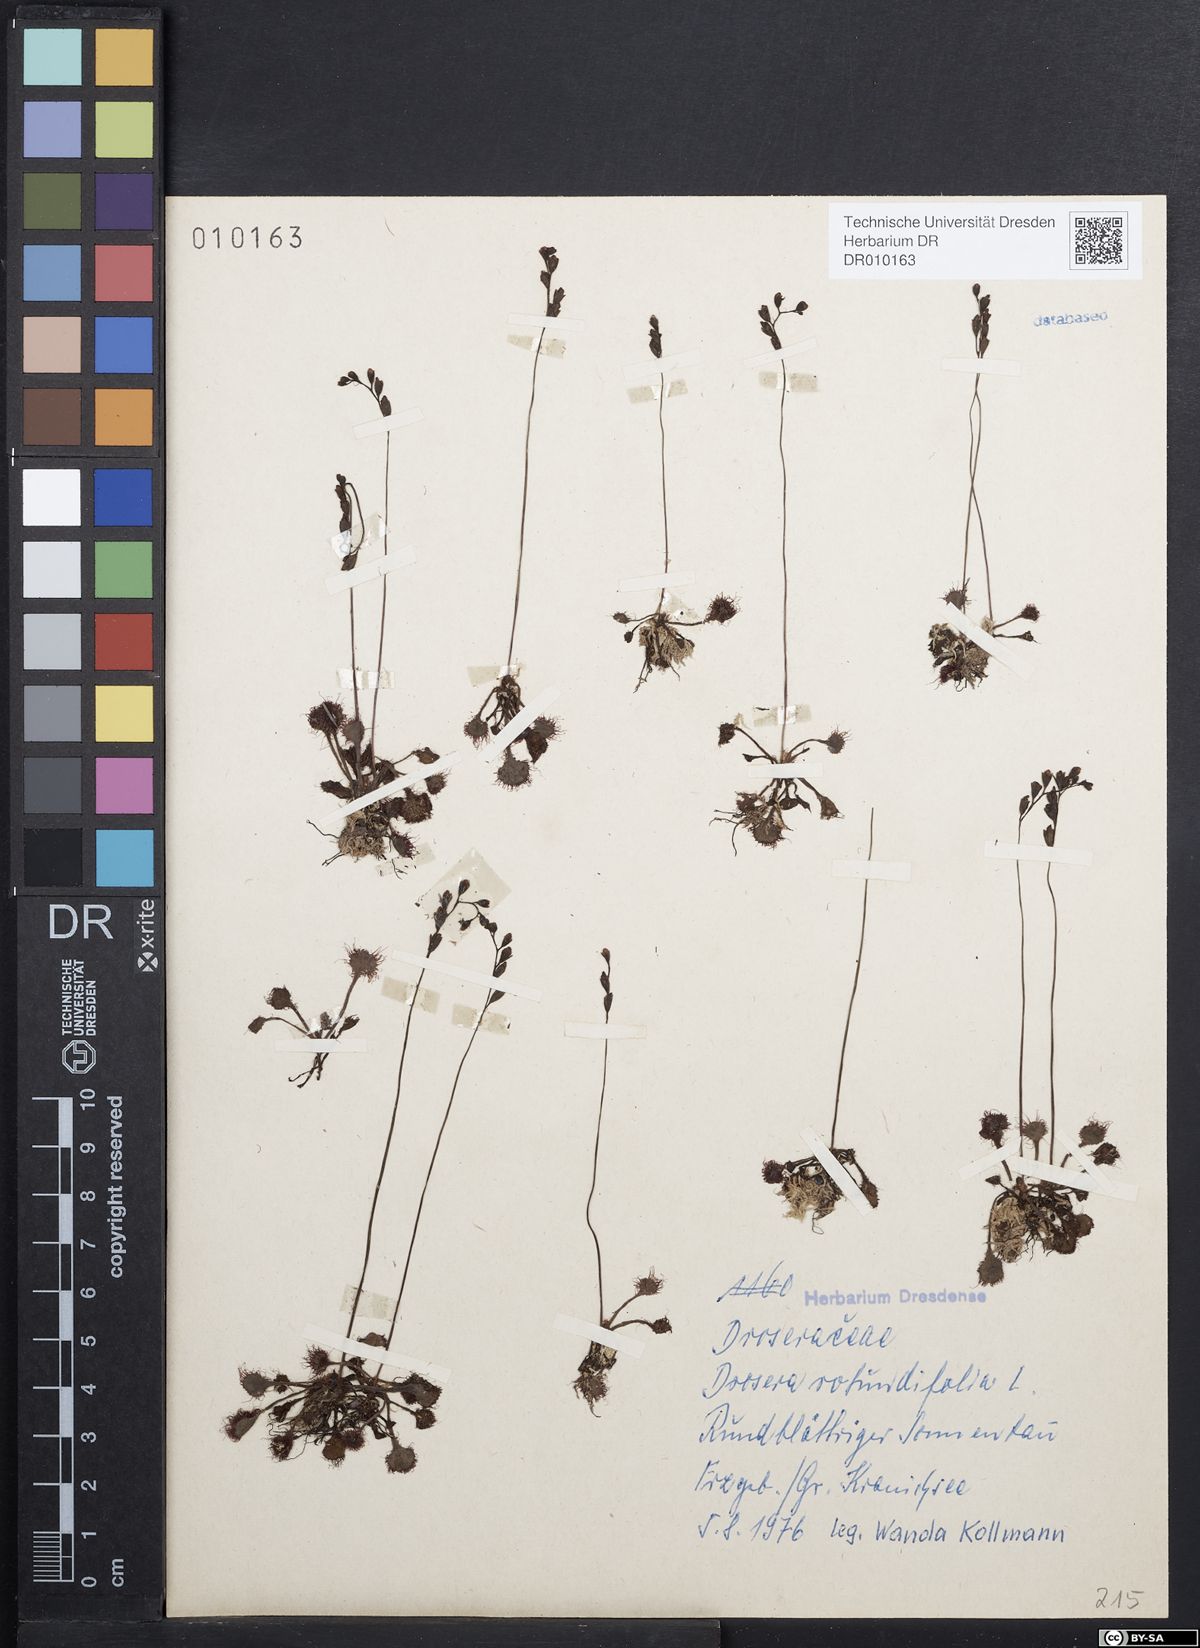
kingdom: Plantae
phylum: Tracheophyta
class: Magnoliopsida
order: Caryophyllales
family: Droseraceae
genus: Drosera
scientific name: Drosera rotundifolia
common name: Round-leaved sundew
